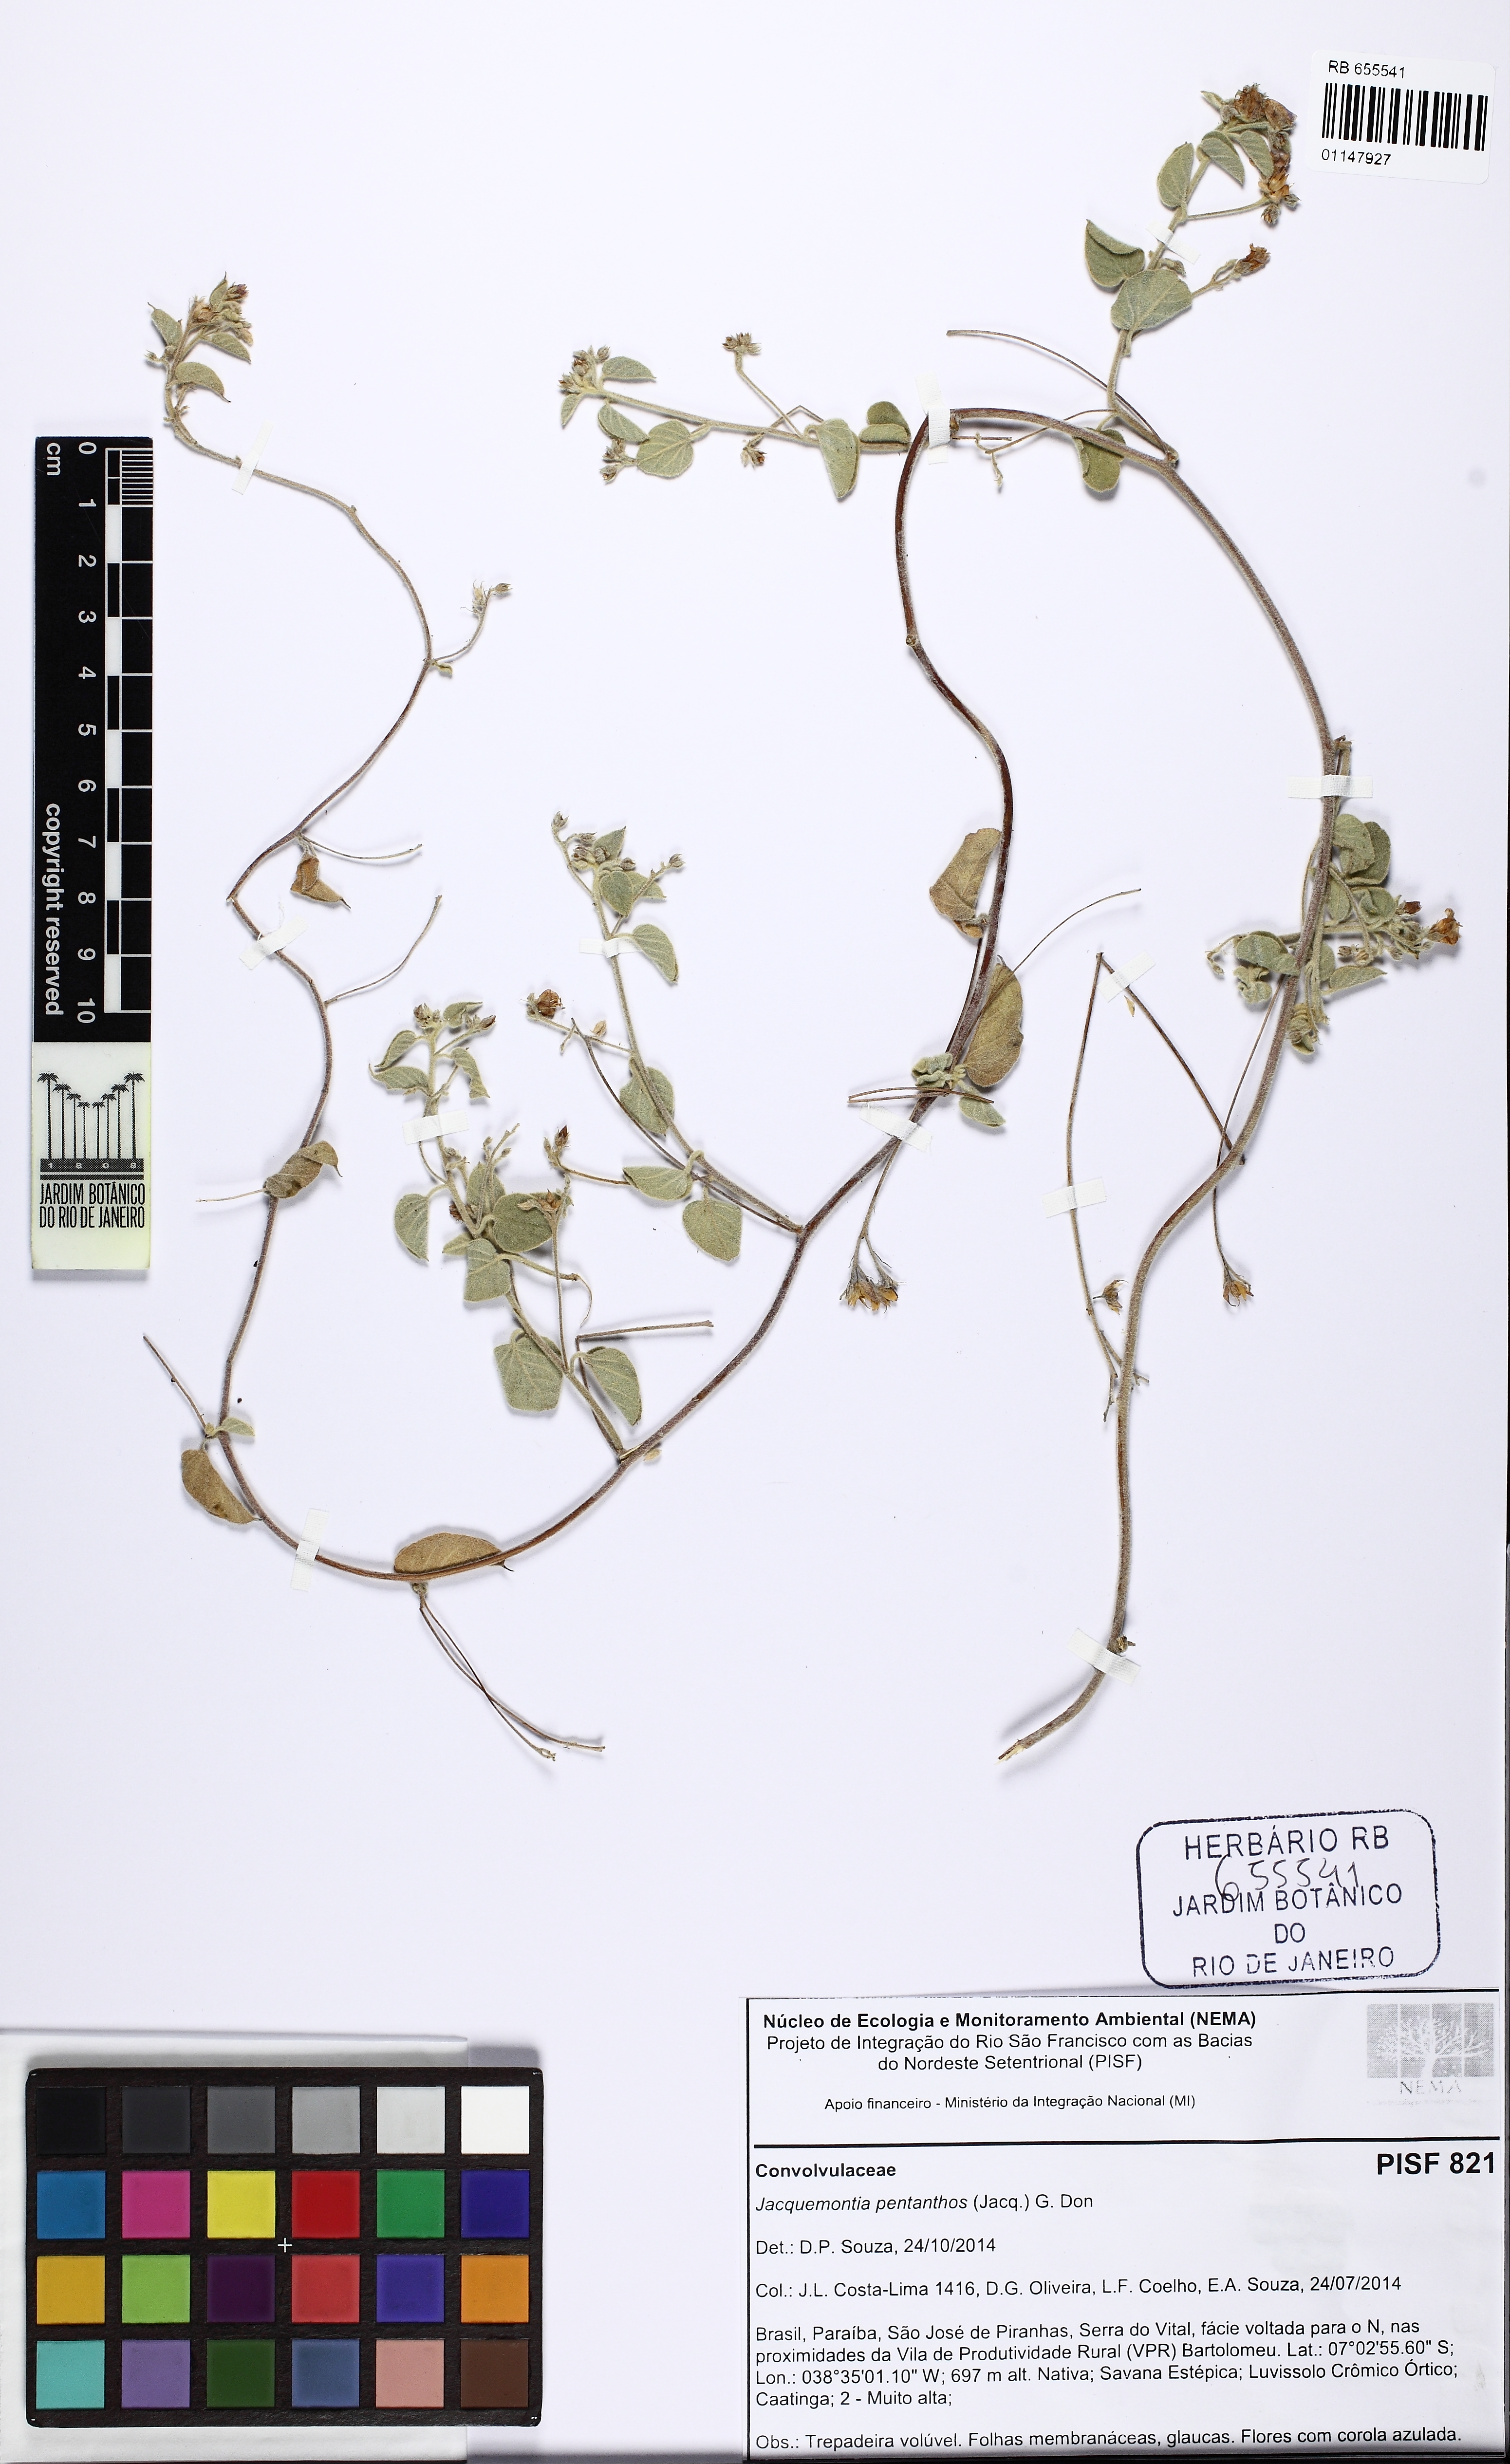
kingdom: Plantae
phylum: Tracheophyta
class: Magnoliopsida
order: Solanales
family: Convolvulaceae
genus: Jacquemontia
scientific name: Jacquemontia pentanthos
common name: Skyblue clustervine
